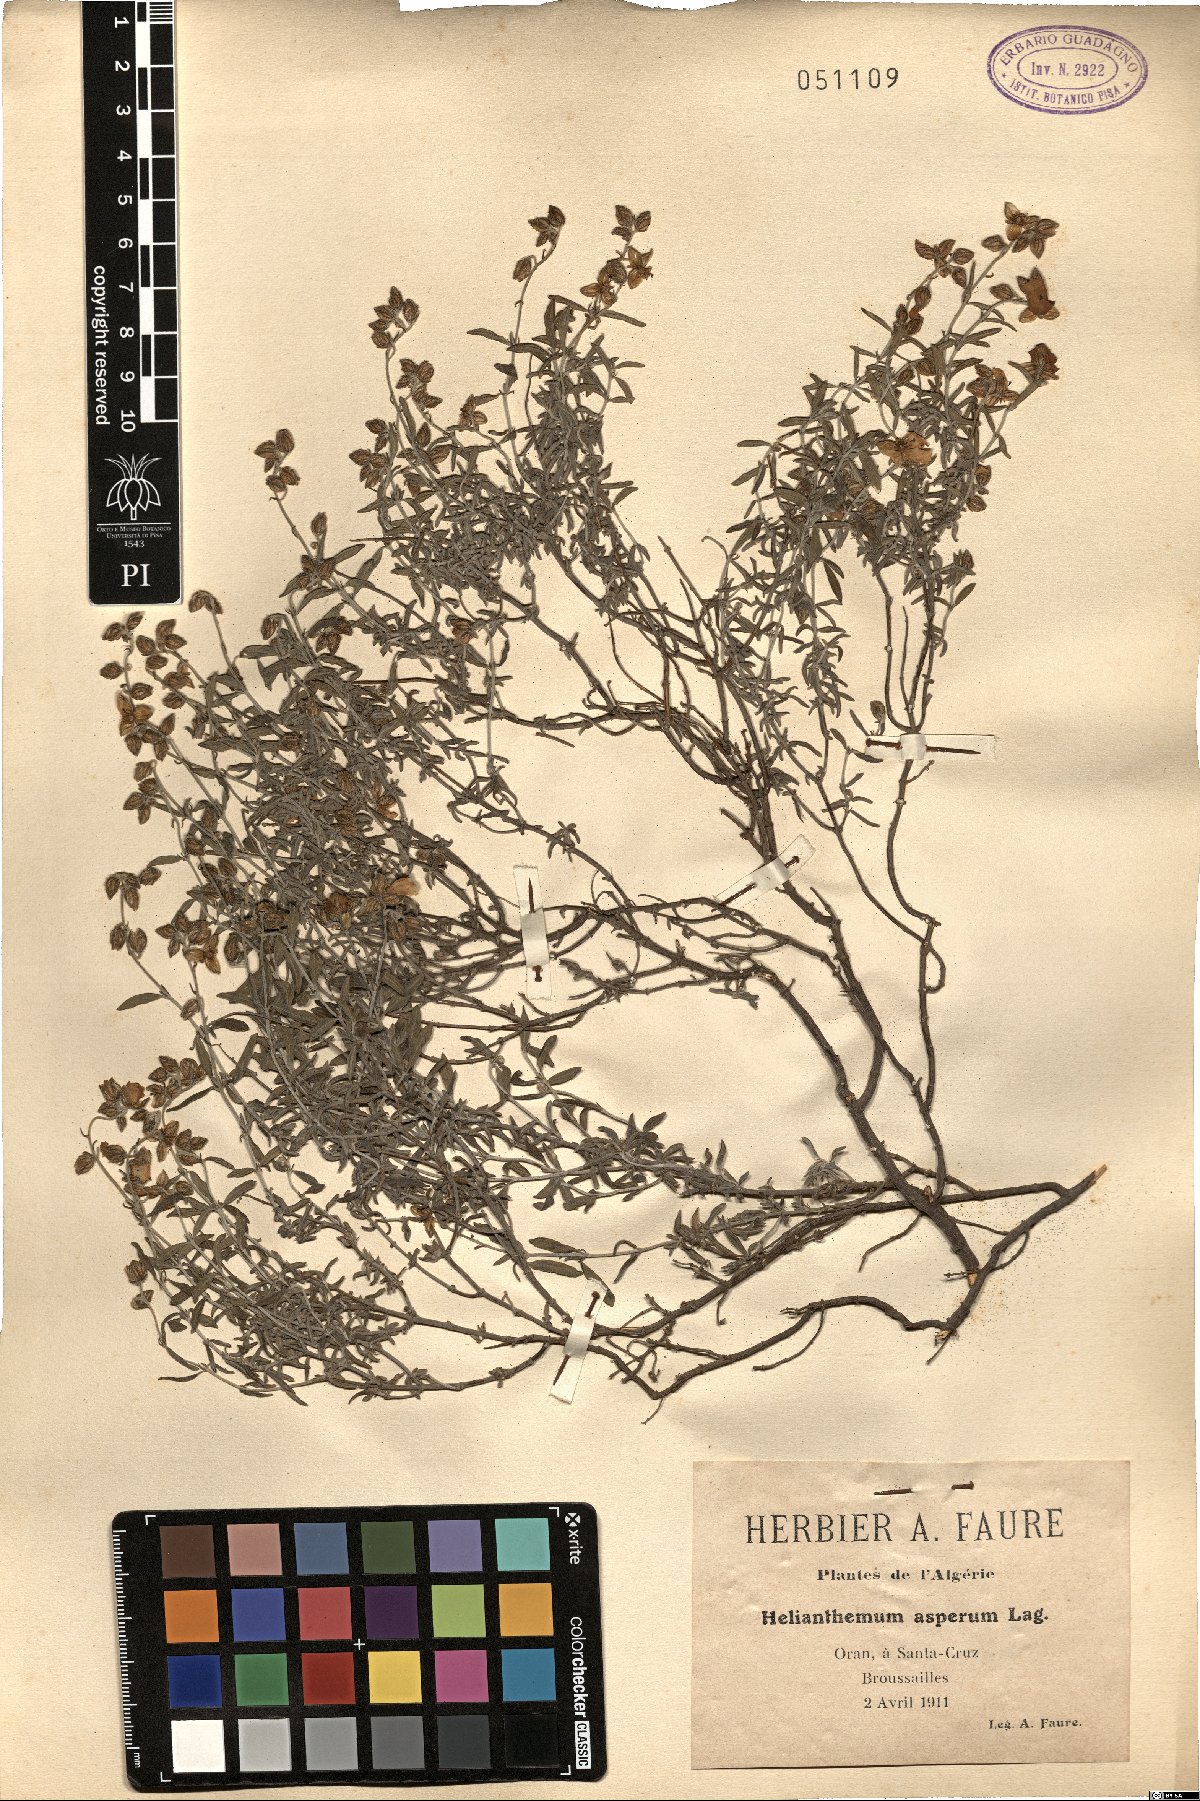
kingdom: Plantae
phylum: Tracheophyta
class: Magnoliopsida
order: Malvales
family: Cistaceae
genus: Helianthemum
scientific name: Helianthemum asperum
